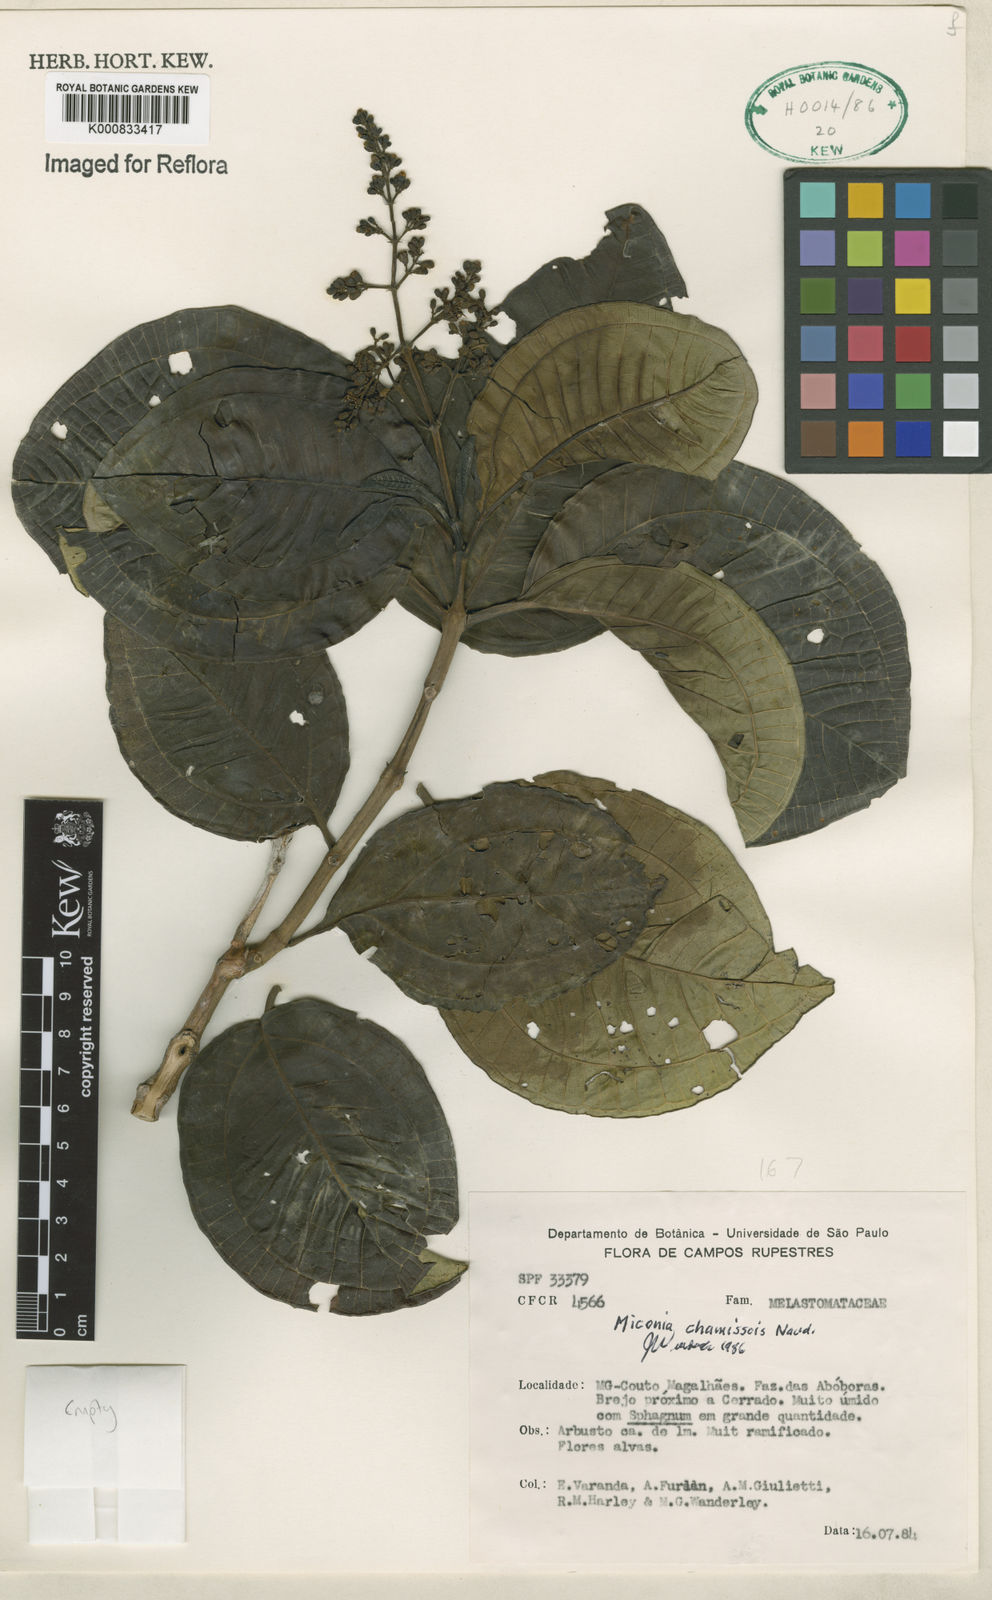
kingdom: Plantae
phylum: Tracheophyta
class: Magnoliopsida
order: Myrtales
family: Melastomataceae
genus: Miconia
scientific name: Miconia chamissois
